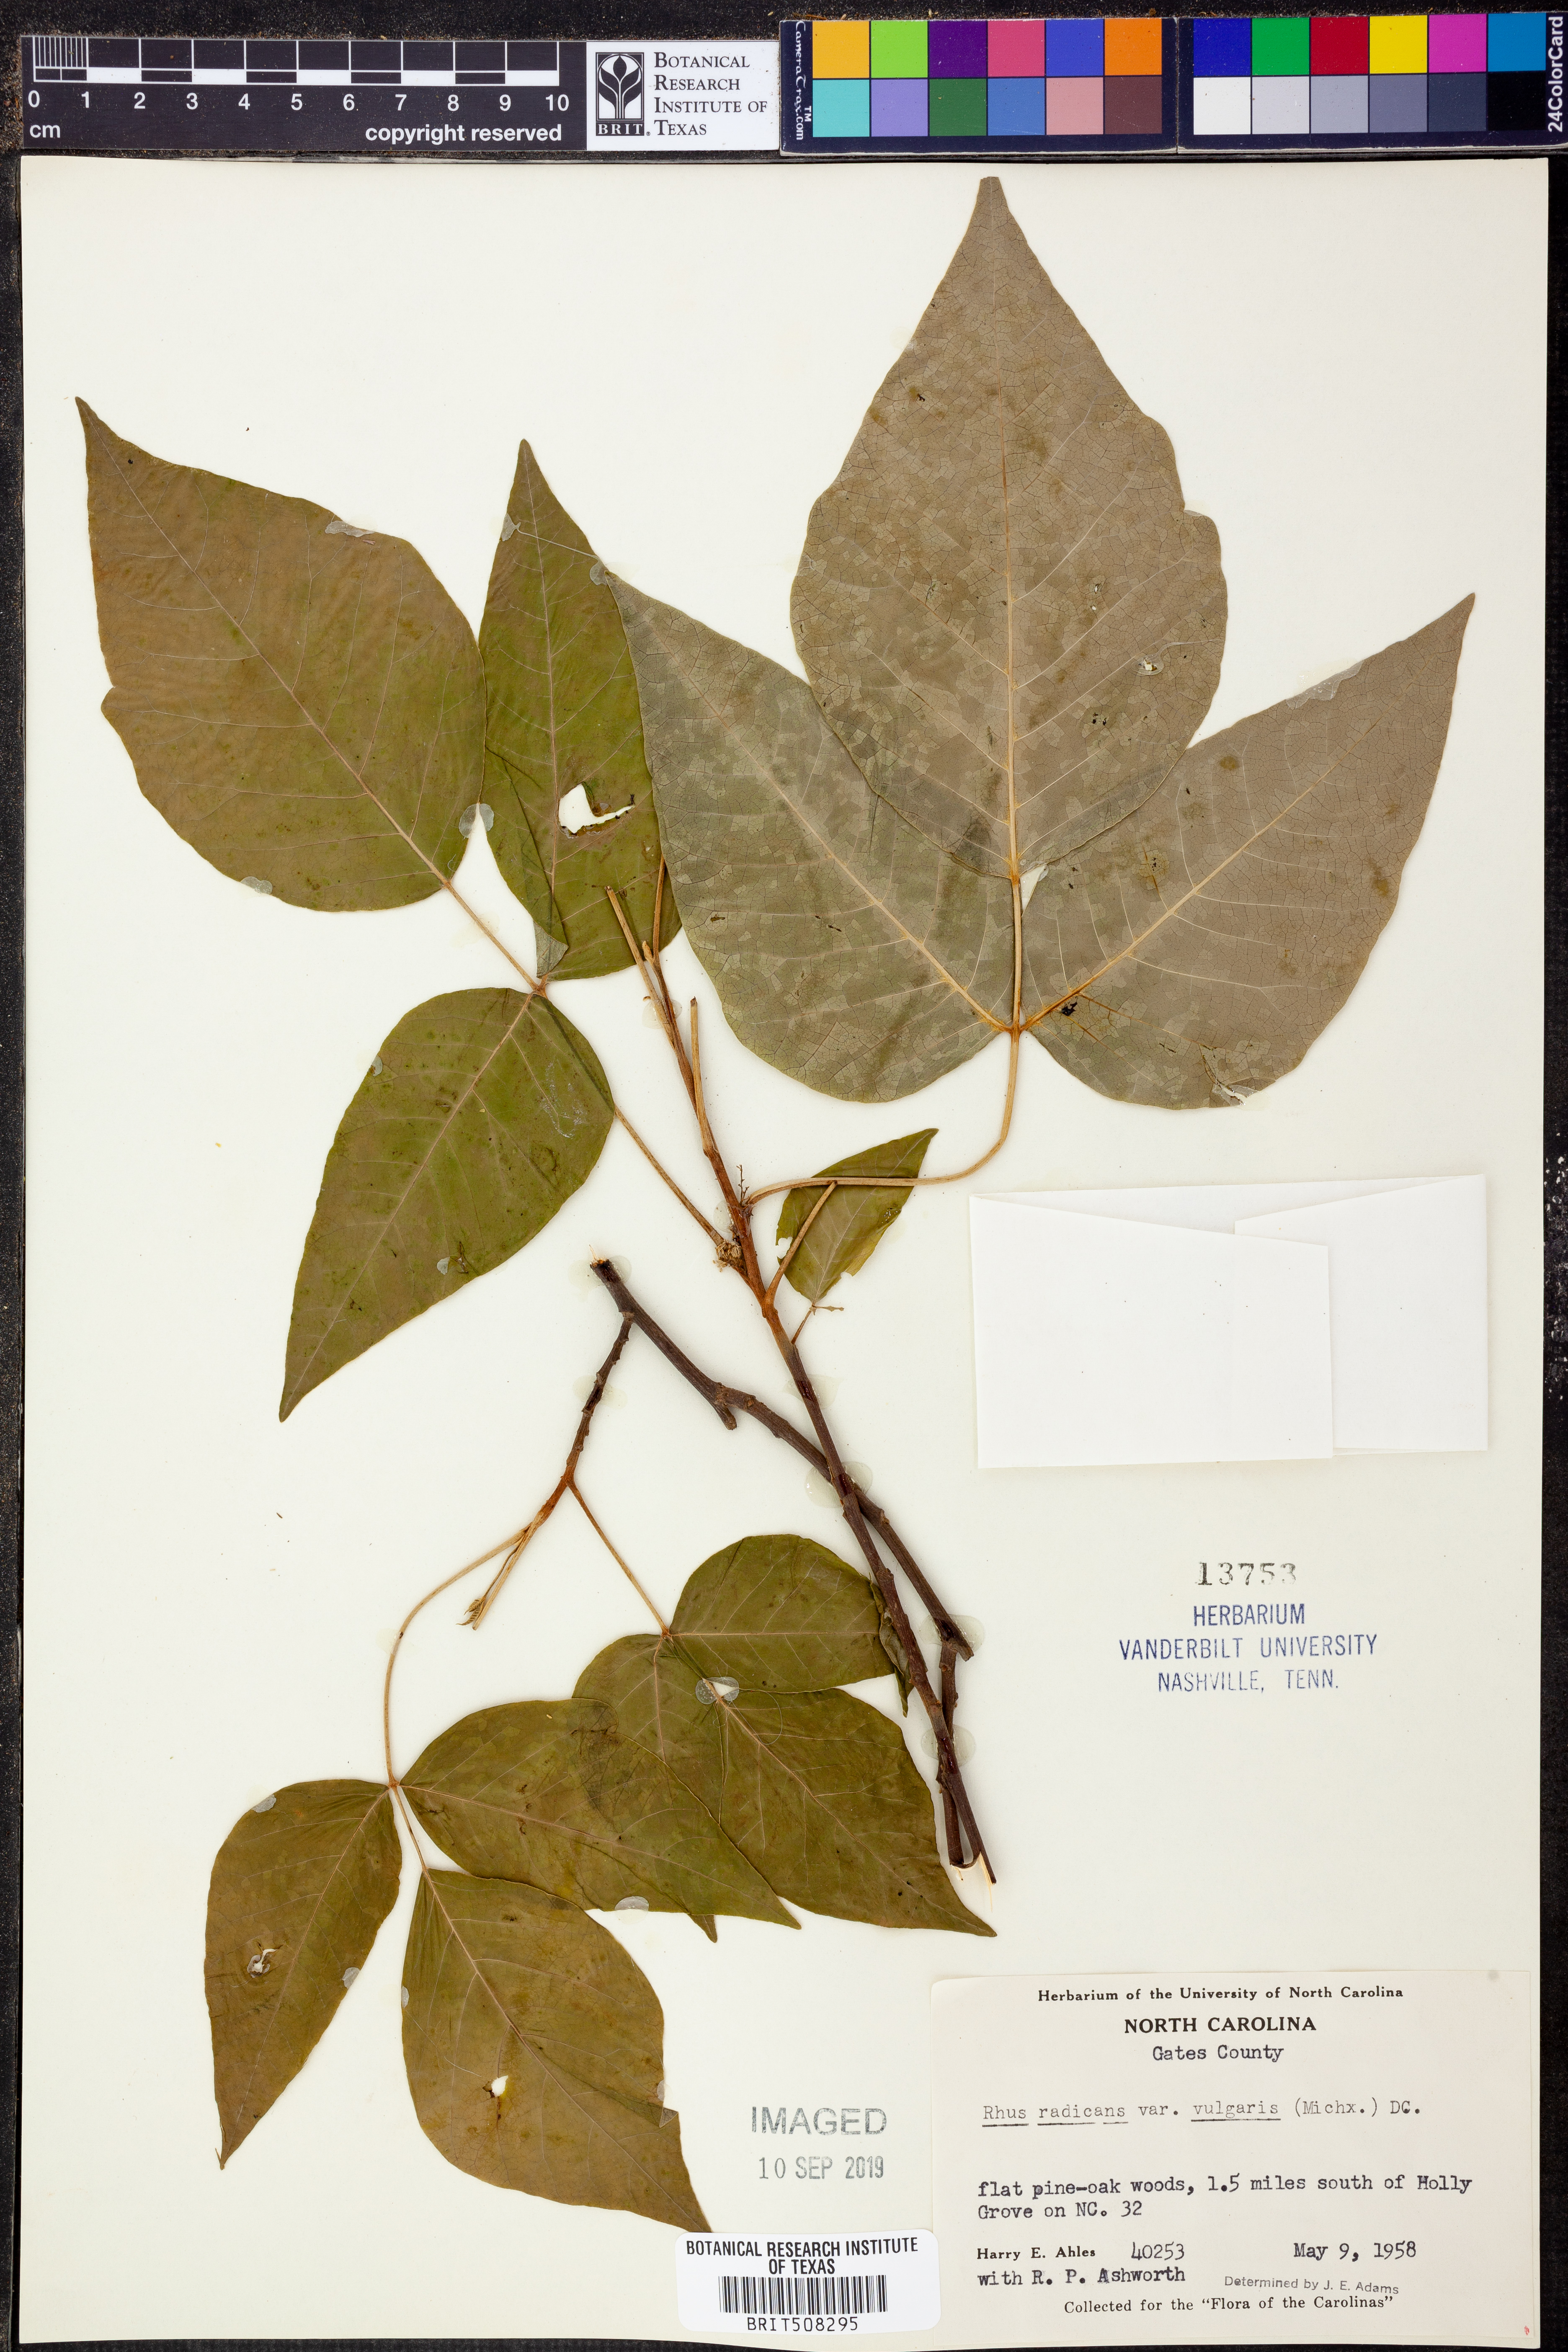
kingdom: Plantae
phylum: Tracheophyta
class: Magnoliopsida
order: Sapindales
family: Anacardiaceae
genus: Toxicodendron
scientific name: Toxicodendron rydbergii
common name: Rydberg's poison-ivy
